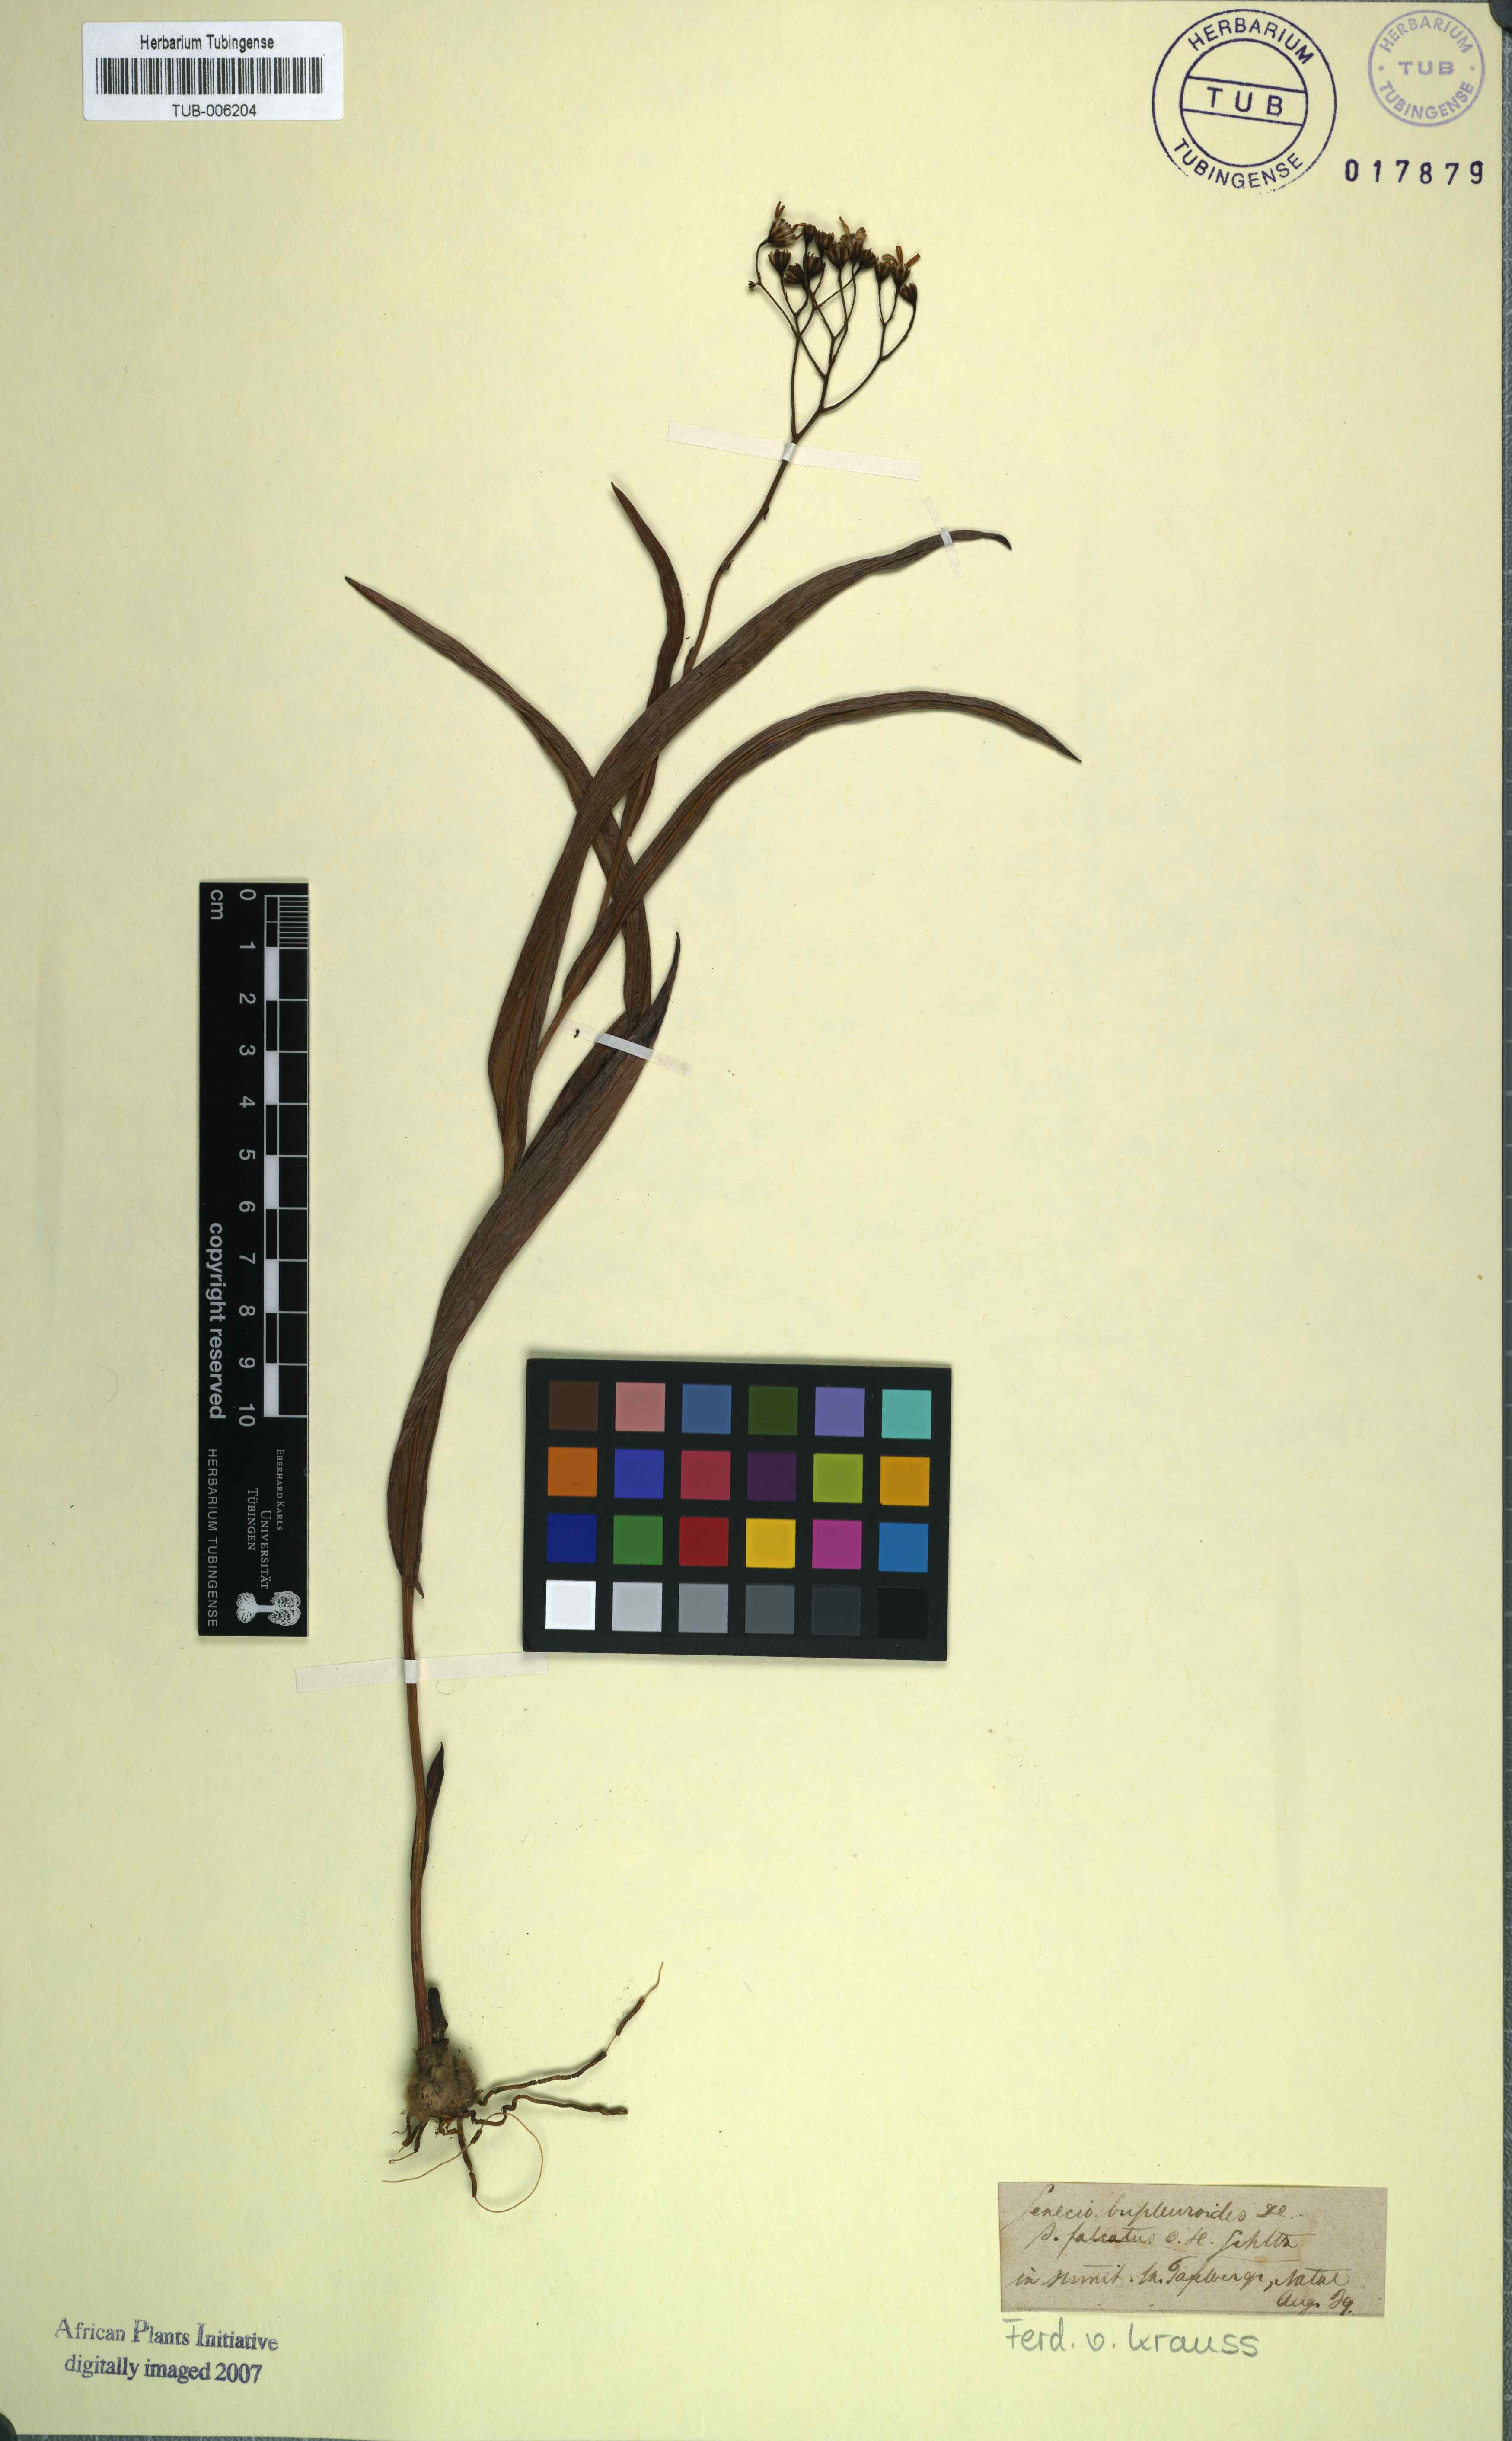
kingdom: Plantae
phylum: Tracheophyta
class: Magnoliopsida
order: Asterales
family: Asteraceae
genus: Senecio
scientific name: Senecio bupleuroides
